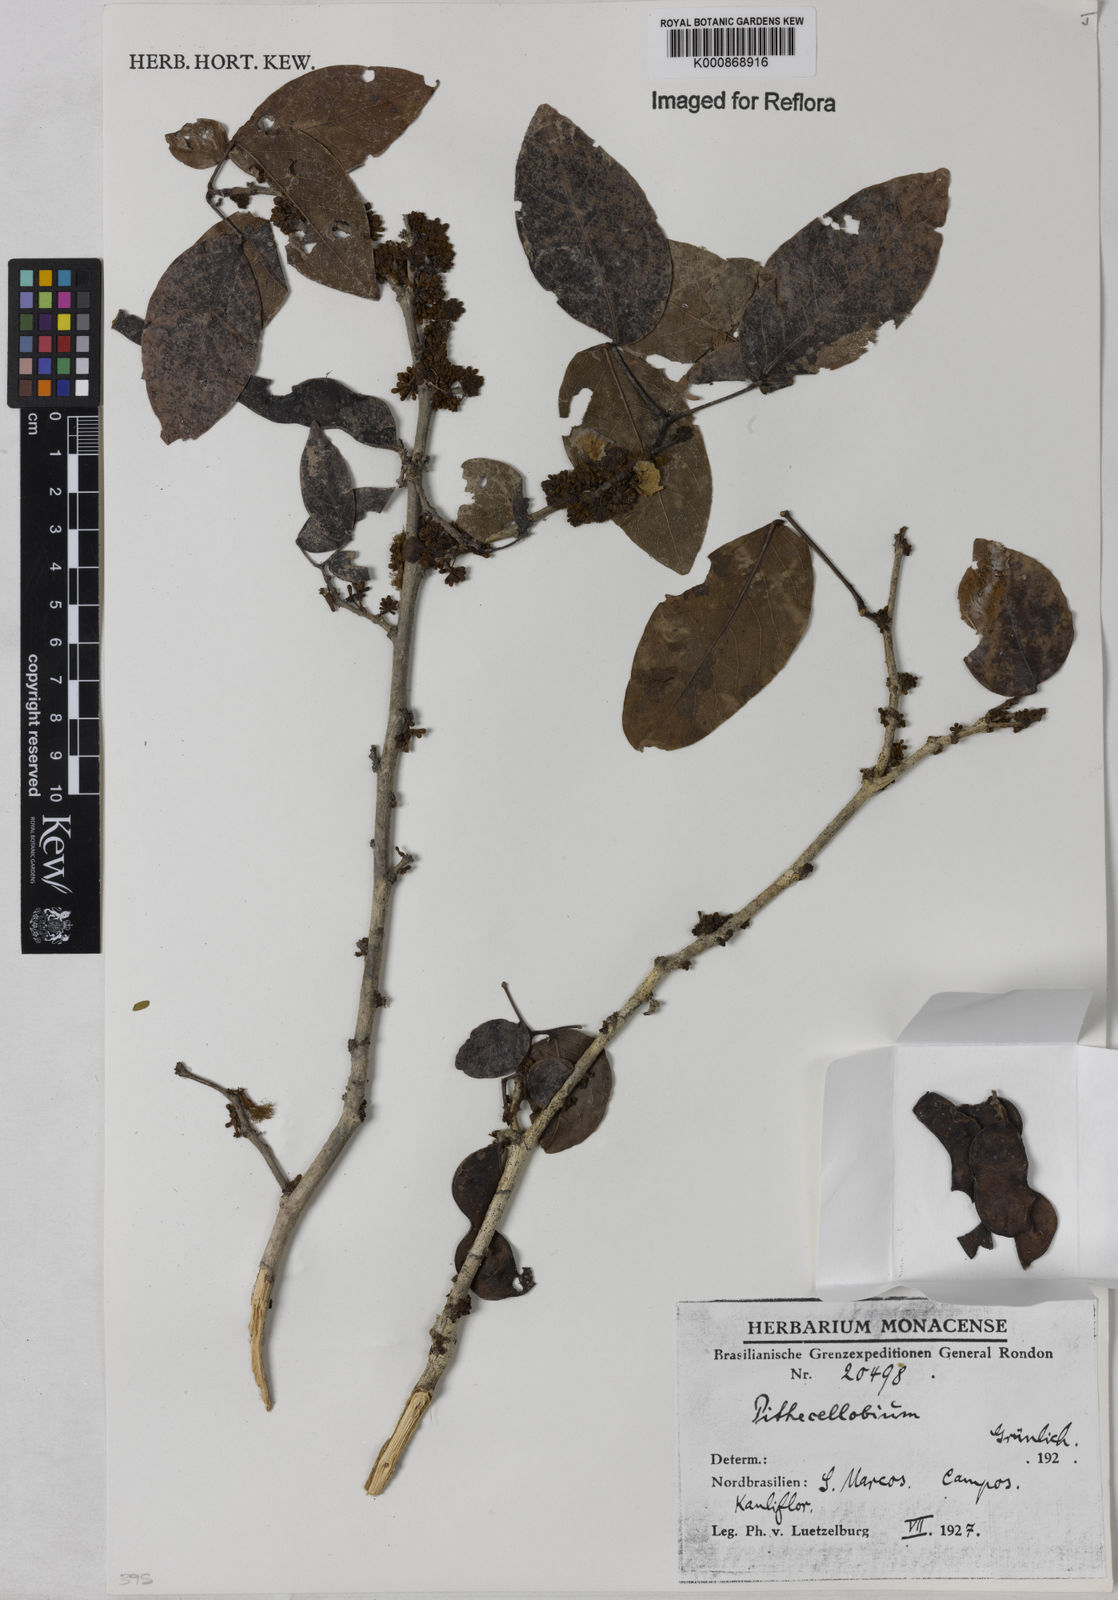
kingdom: Plantae
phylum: Tracheophyta
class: Magnoliopsida
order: Fabales
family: Fabaceae
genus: Zygia
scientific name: Zygia
